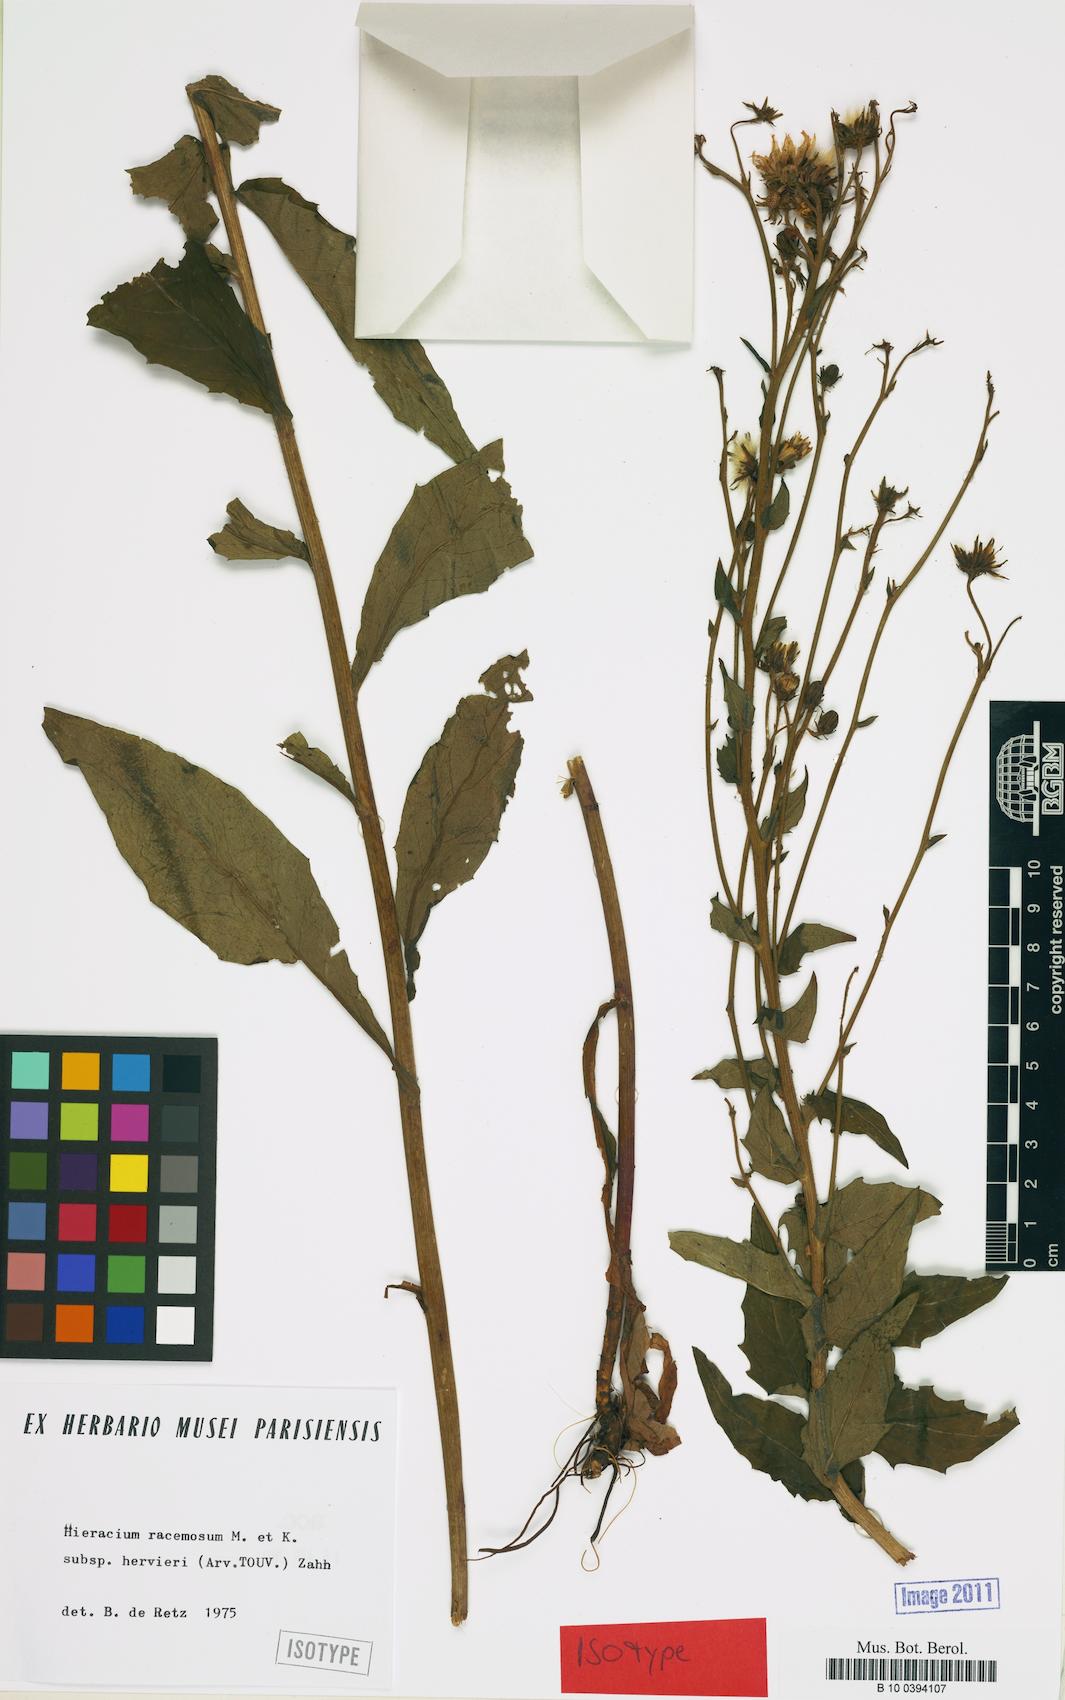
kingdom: Plantae
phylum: Tracheophyta
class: Magnoliopsida
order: Asterales
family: Asteraceae
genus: Hieracium
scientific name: Hieracium racemosum
